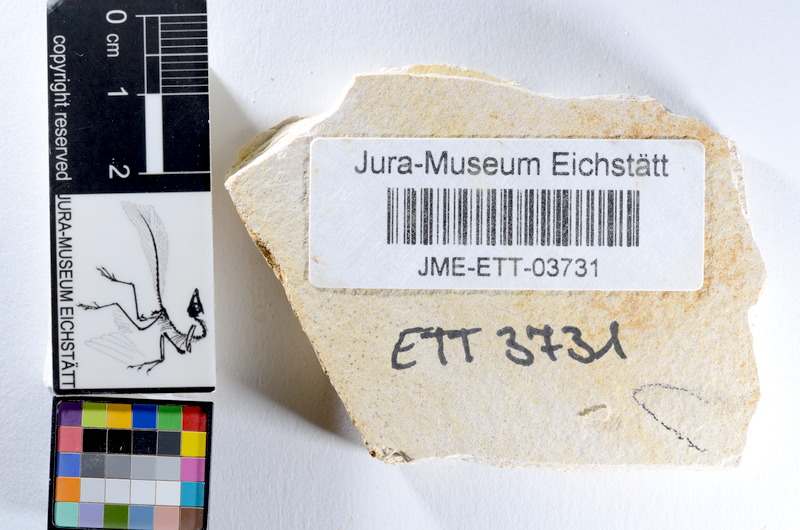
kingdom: Animalia
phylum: Chordata
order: Salmoniformes
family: Orthogonikleithridae
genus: Orthogonikleithrus
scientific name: Orthogonikleithrus hoelli
